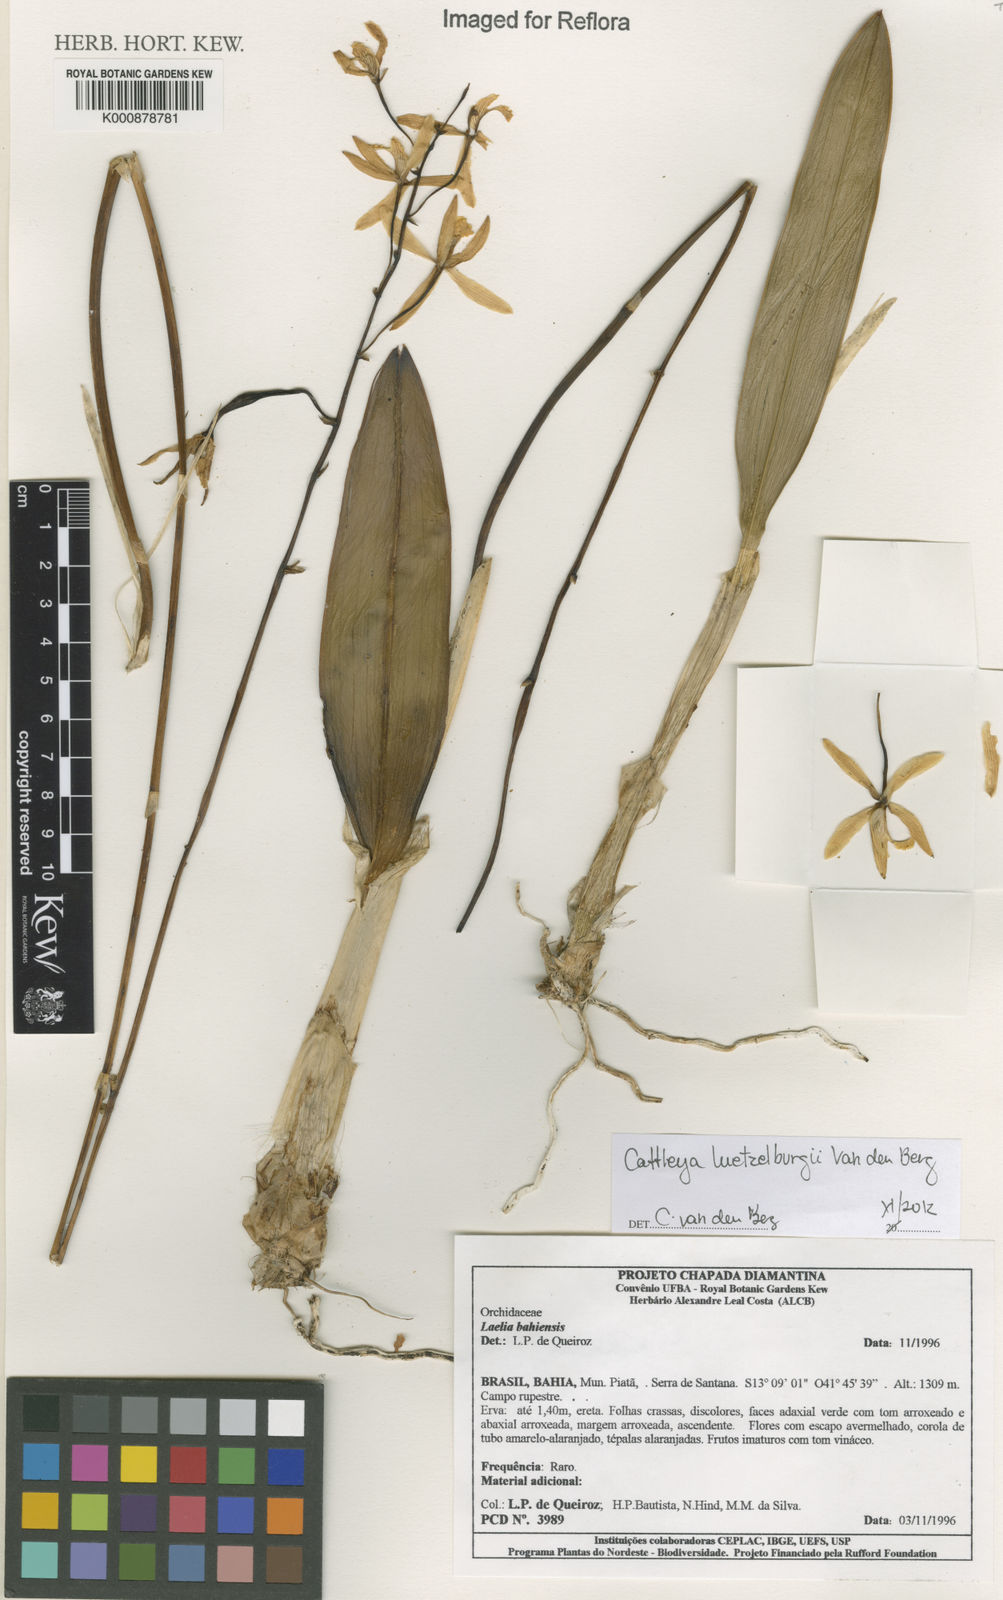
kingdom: Plantae
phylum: Tracheophyta
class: Liliopsida
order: Asparagales
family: Orchidaceae
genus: Cattleya
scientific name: Cattleya luetzelburgii
